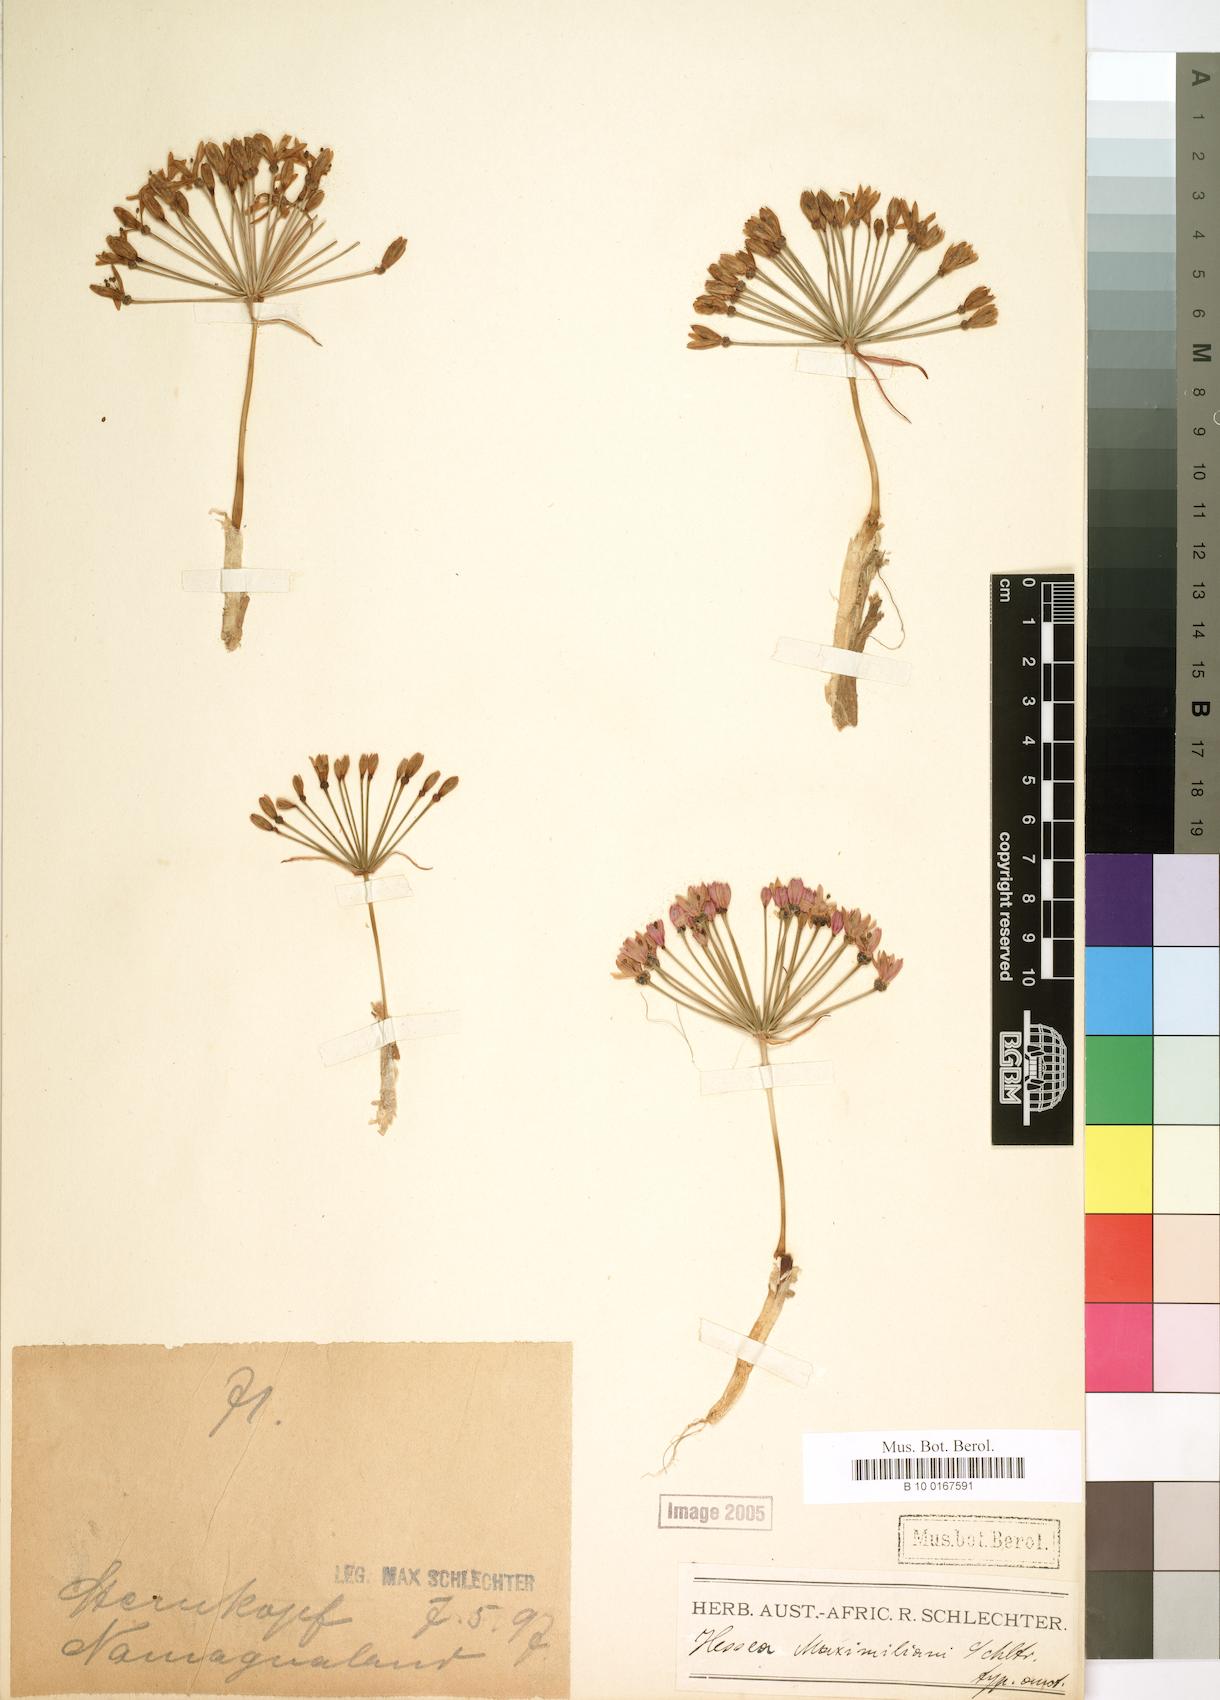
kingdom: Plantae
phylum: Tracheophyta
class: Liliopsida
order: Asparagales
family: Amaryllidaceae
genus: Hessea
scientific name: Hessea
